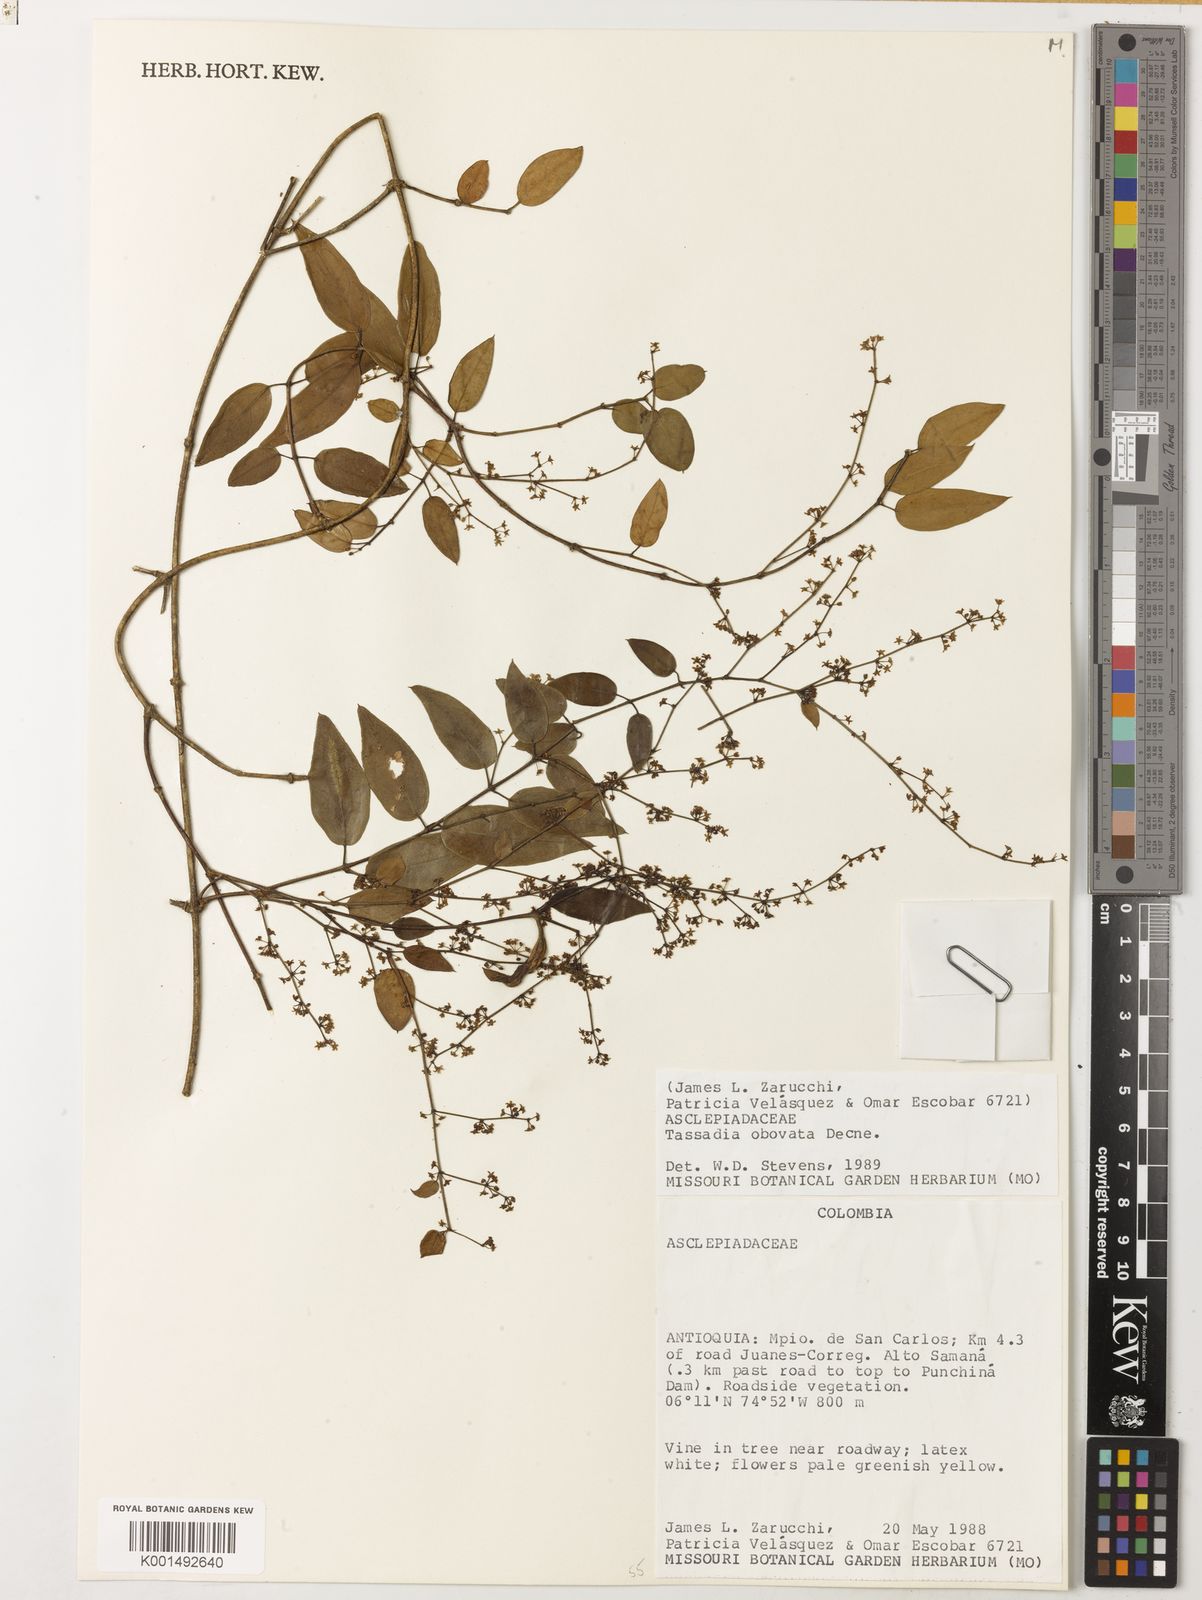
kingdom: Plantae
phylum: Tracheophyta
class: Magnoliopsida
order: Gentianales
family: Apocynaceae
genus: Tassadia
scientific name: Tassadia obovata
